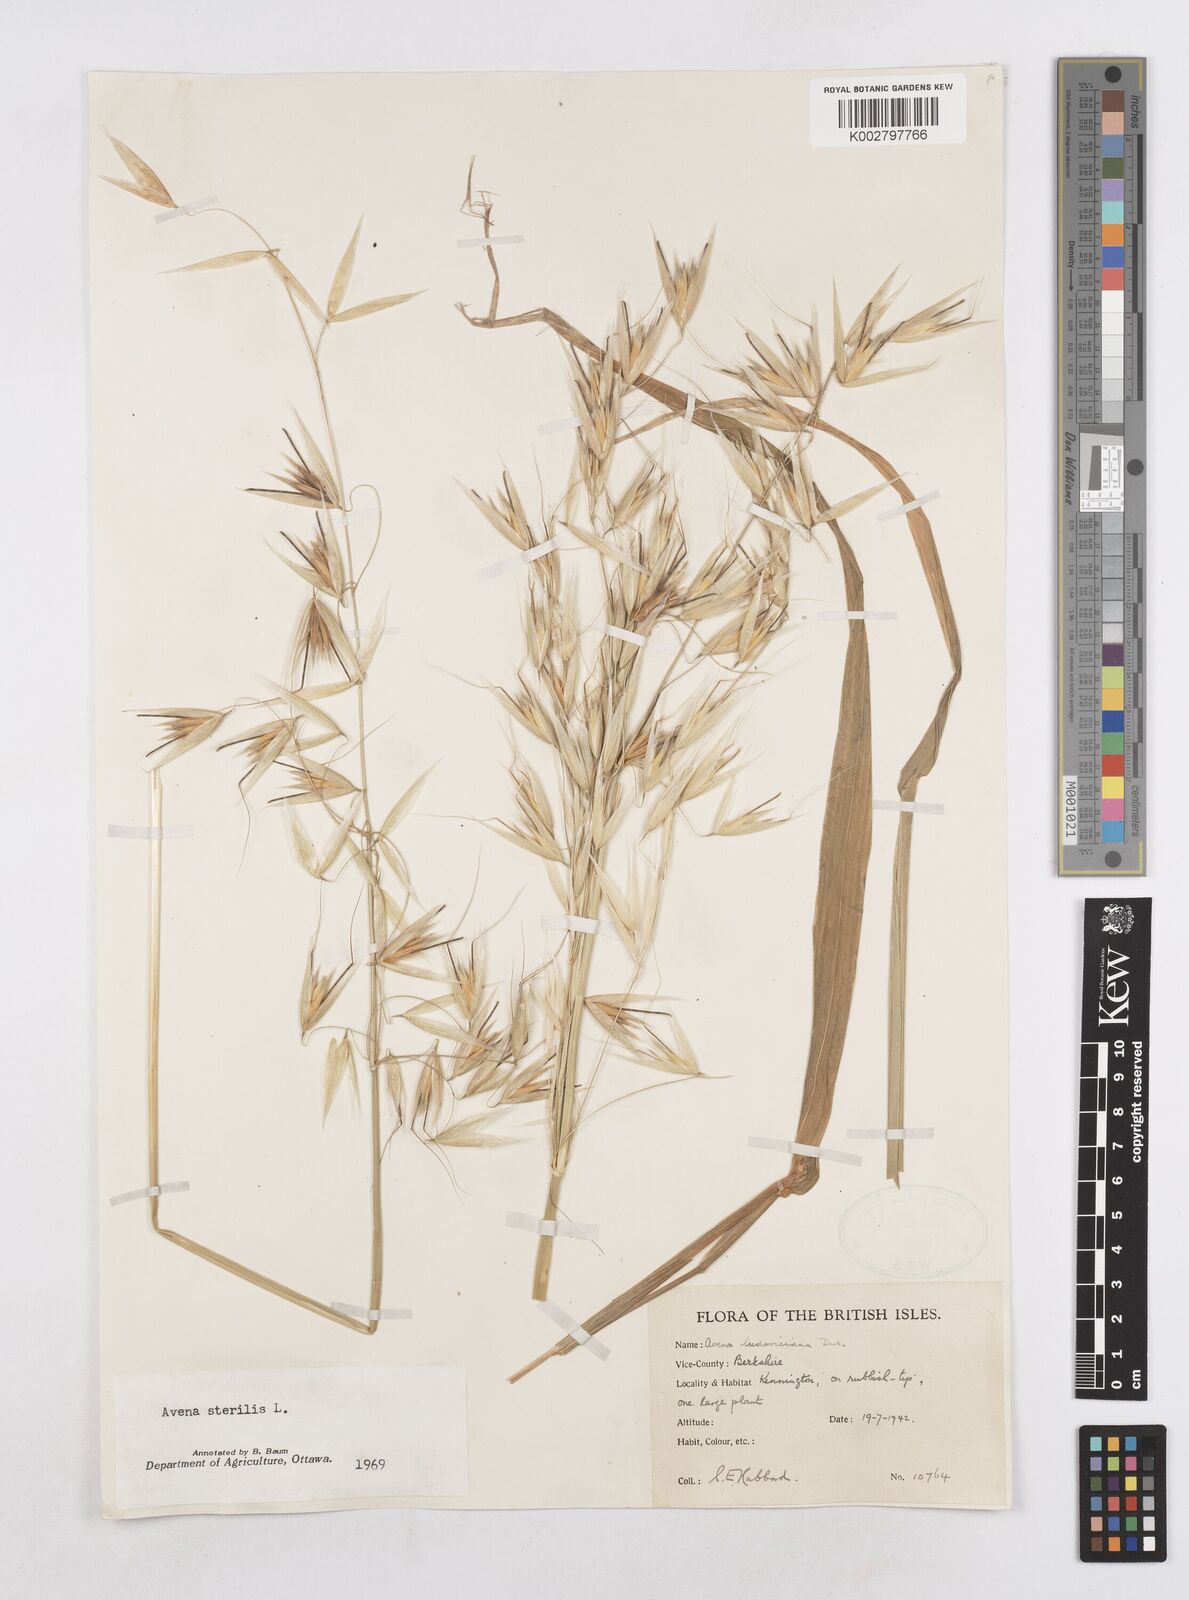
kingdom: Plantae
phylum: Tracheophyta
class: Liliopsida
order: Poales
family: Poaceae
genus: Avena
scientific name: Avena sterilis
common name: Animated oat
